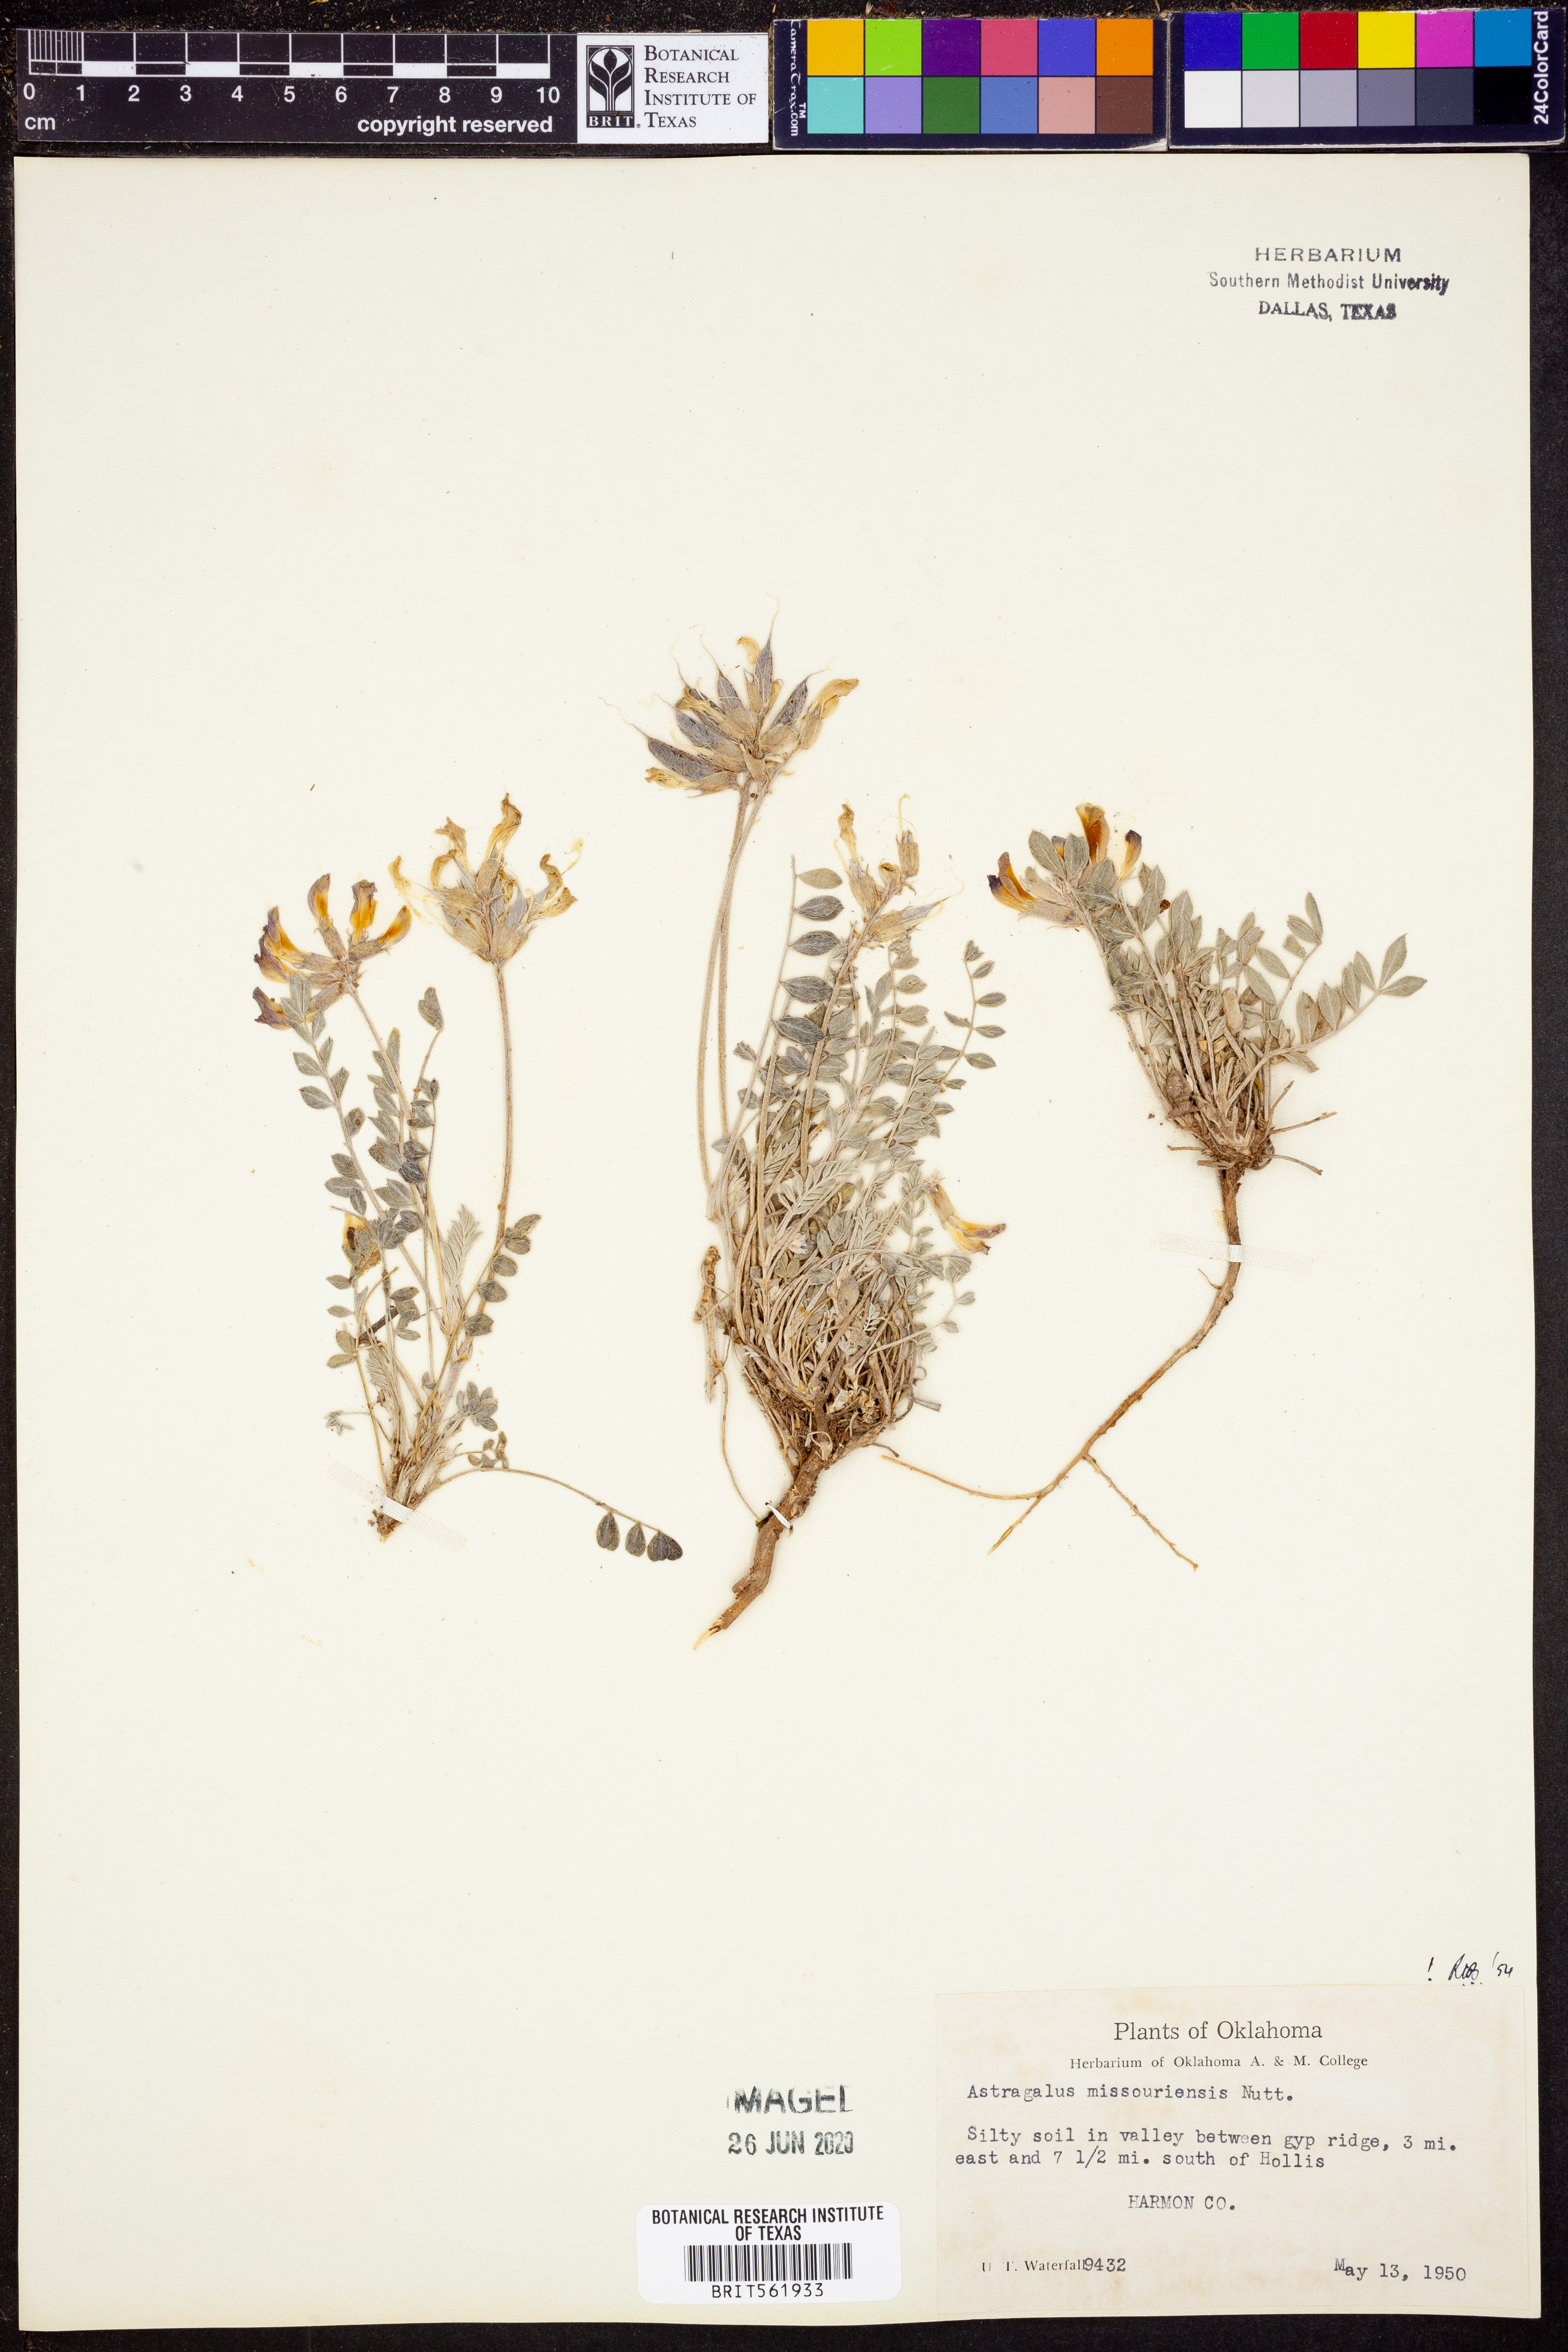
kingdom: Plantae
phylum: Tracheophyta
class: Magnoliopsida
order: Fabales
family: Fabaceae
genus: Astragalus
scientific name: Astragalus missouriensis
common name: Missouri milk-vetch
